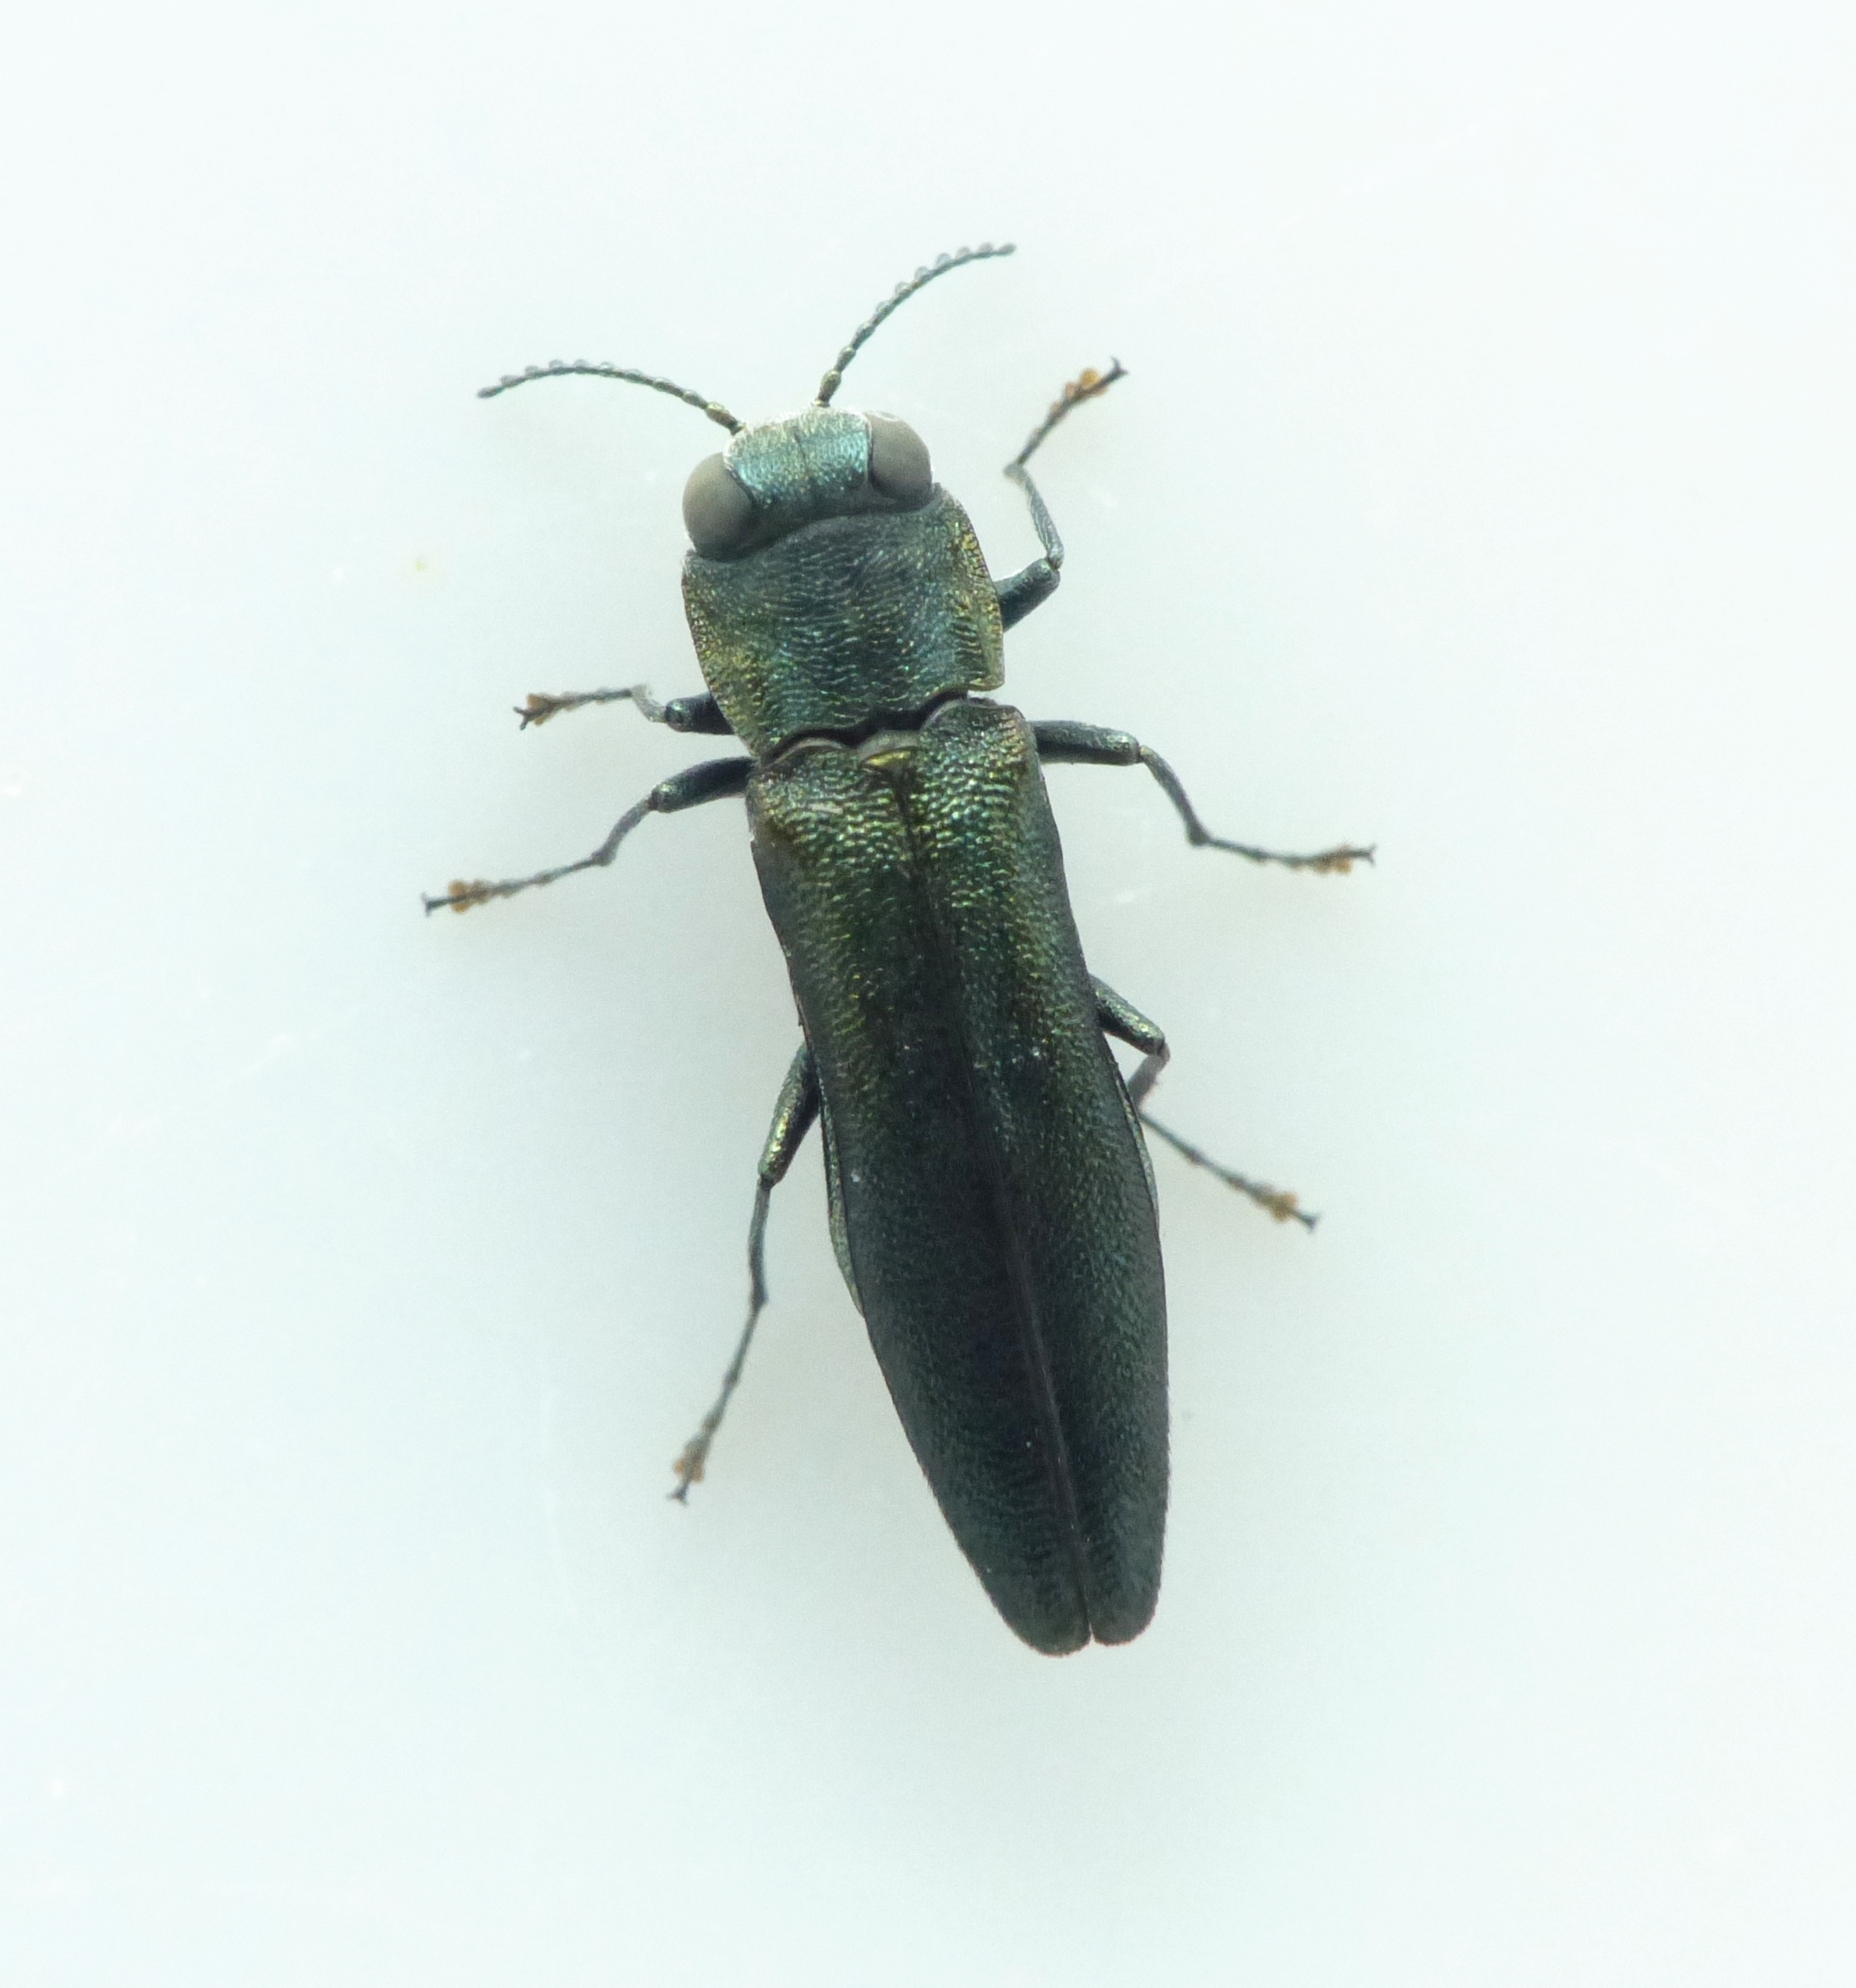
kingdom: Animalia
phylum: Arthropoda
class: Insecta
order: Coleoptera
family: Buprestidae
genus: Agrilus
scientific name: Agrilus angustulus
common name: Smal egepragtbille
